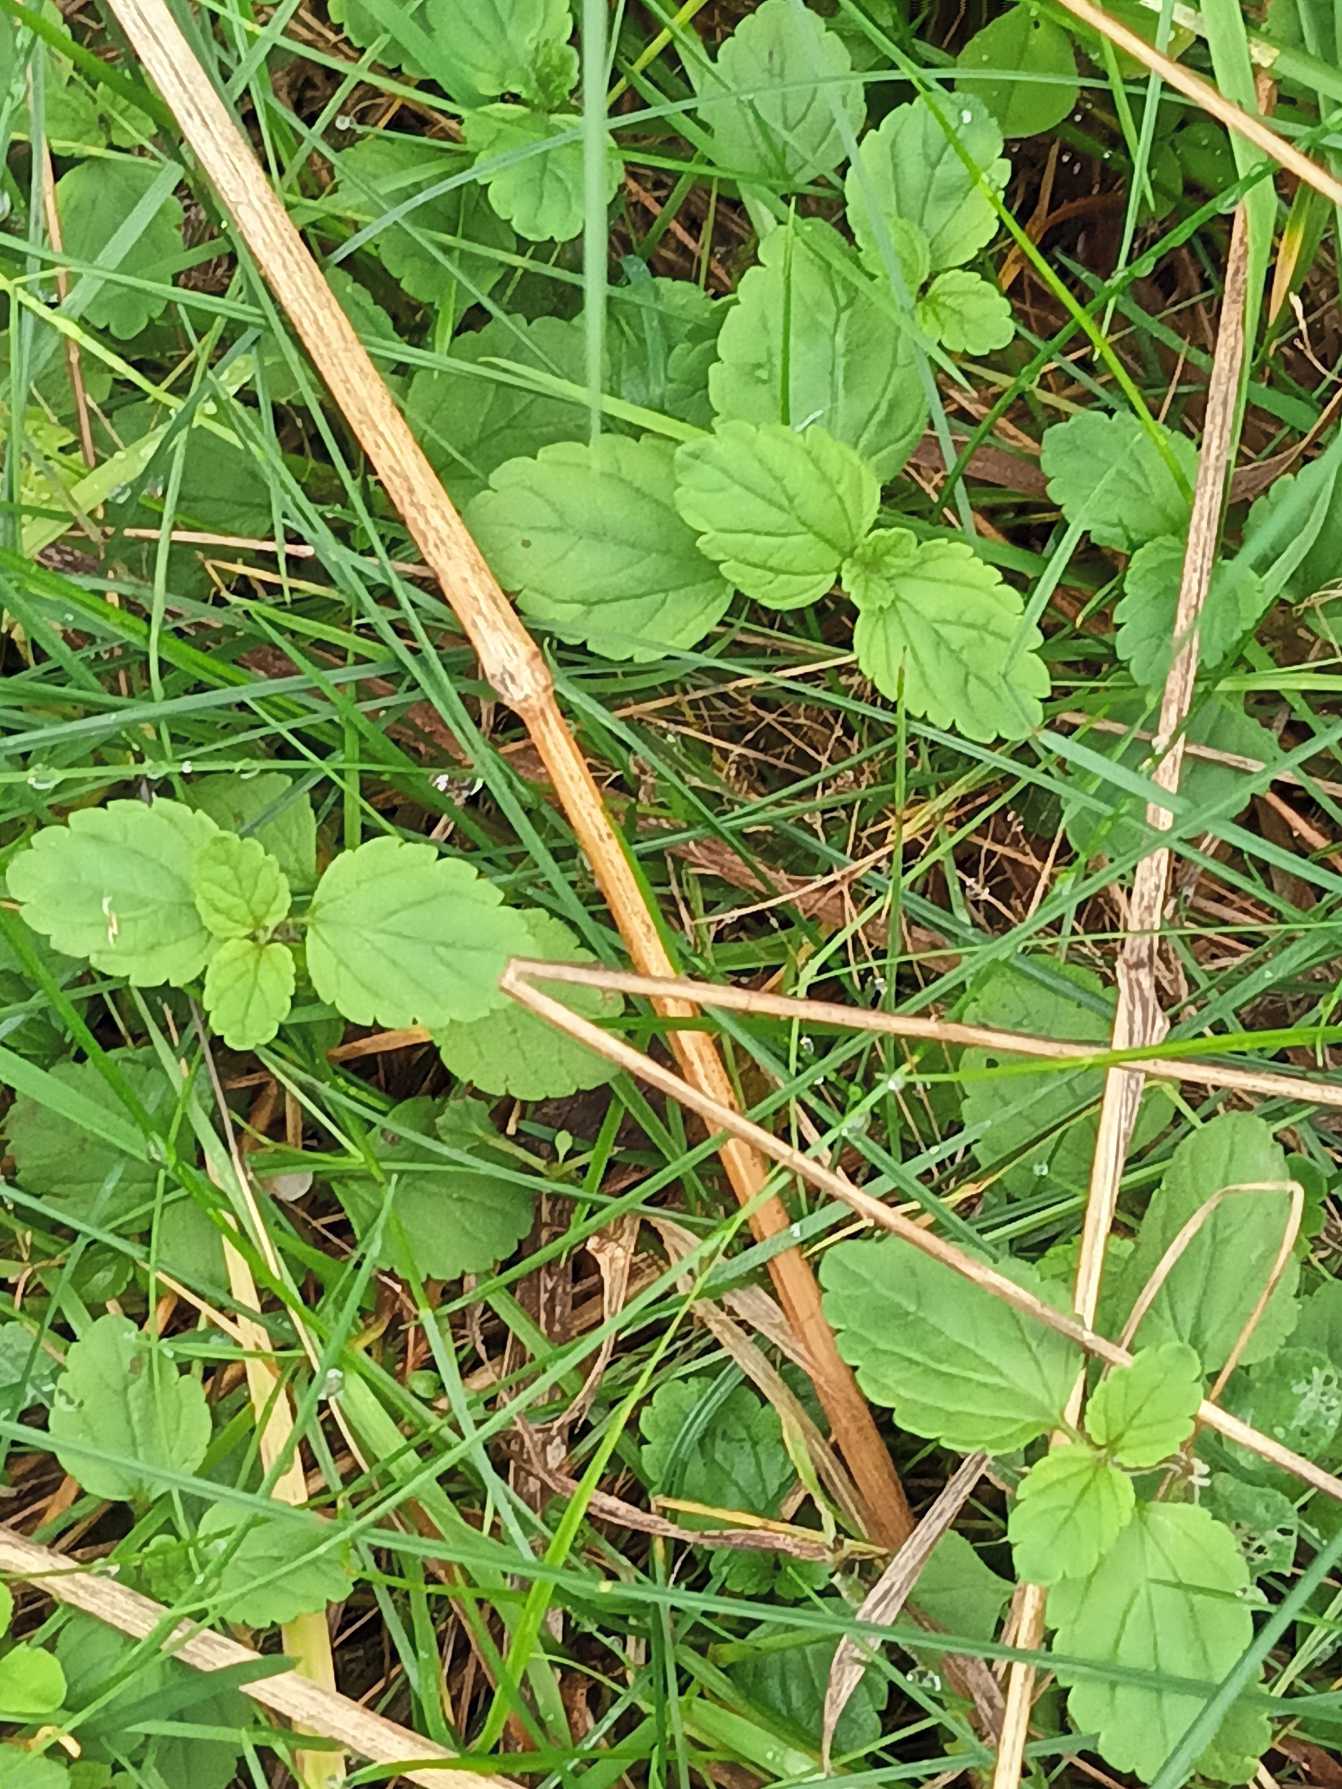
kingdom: Plantae
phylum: Tracheophyta
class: Magnoliopsida
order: Lamiales
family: Plantaginaceae
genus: Veronica
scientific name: Veronica chamaedrys
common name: Tveskægget ærenpris
